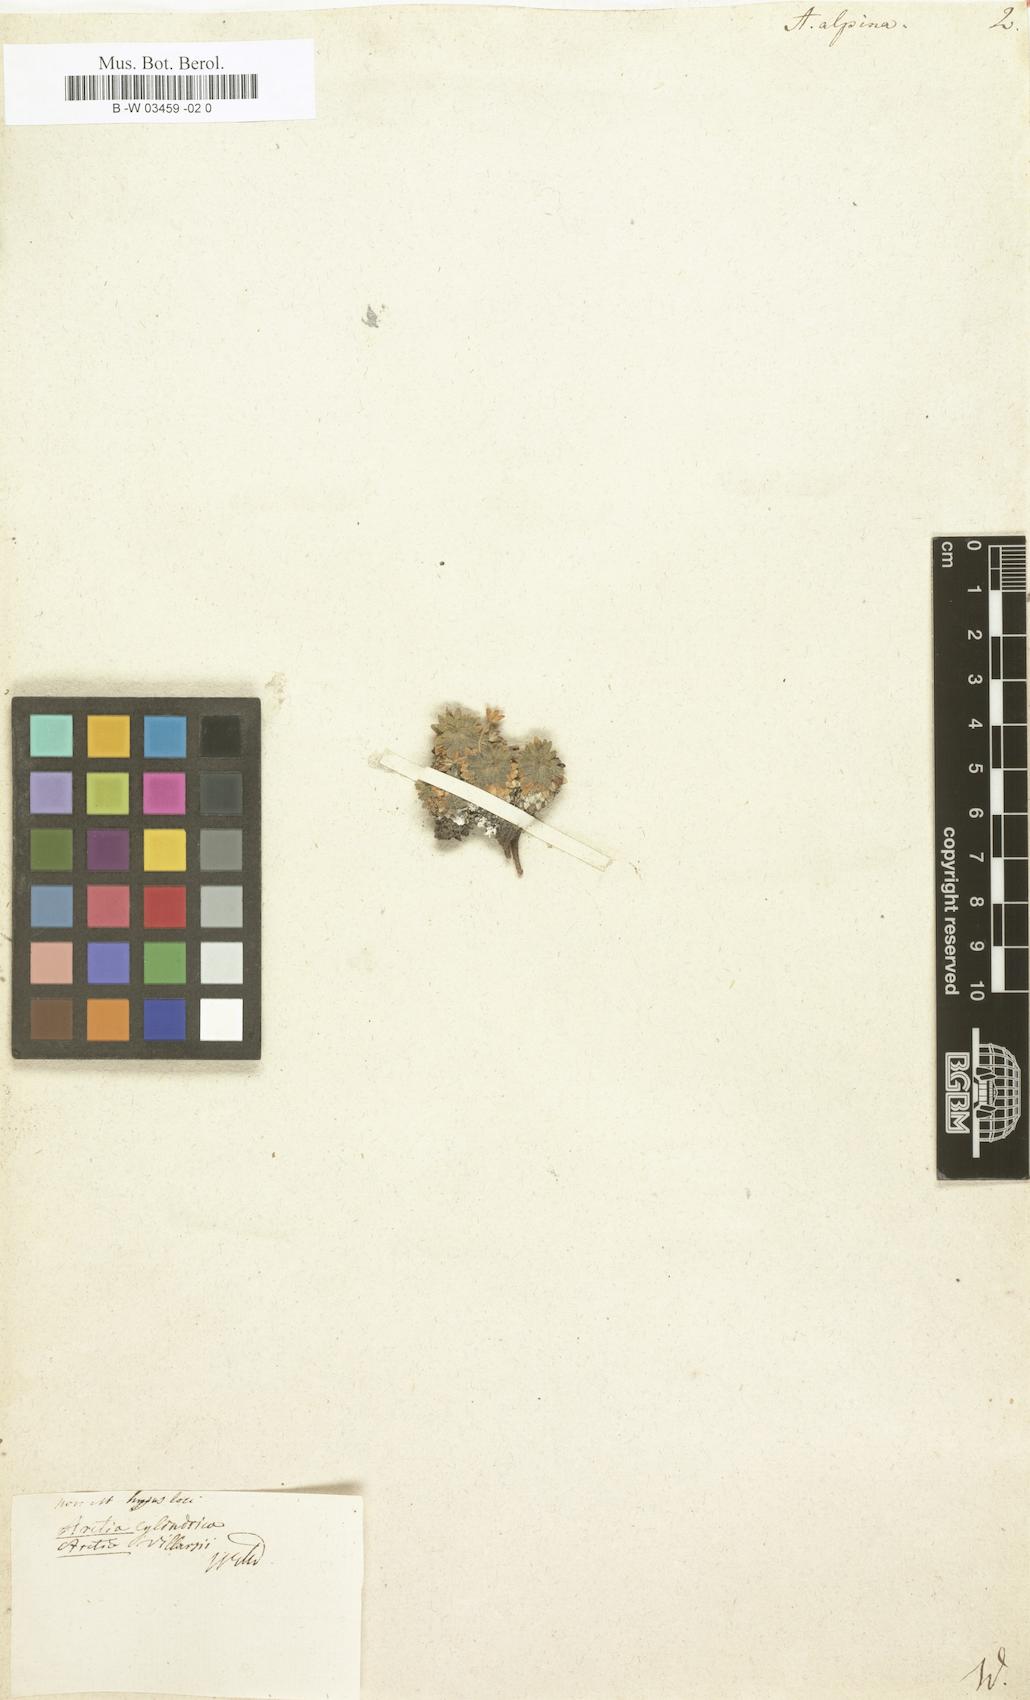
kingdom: Plantae
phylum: Tracheophyta
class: Magnoliopsida
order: Ericales
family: Primulaceae
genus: Androsace
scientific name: Androsace alpina
